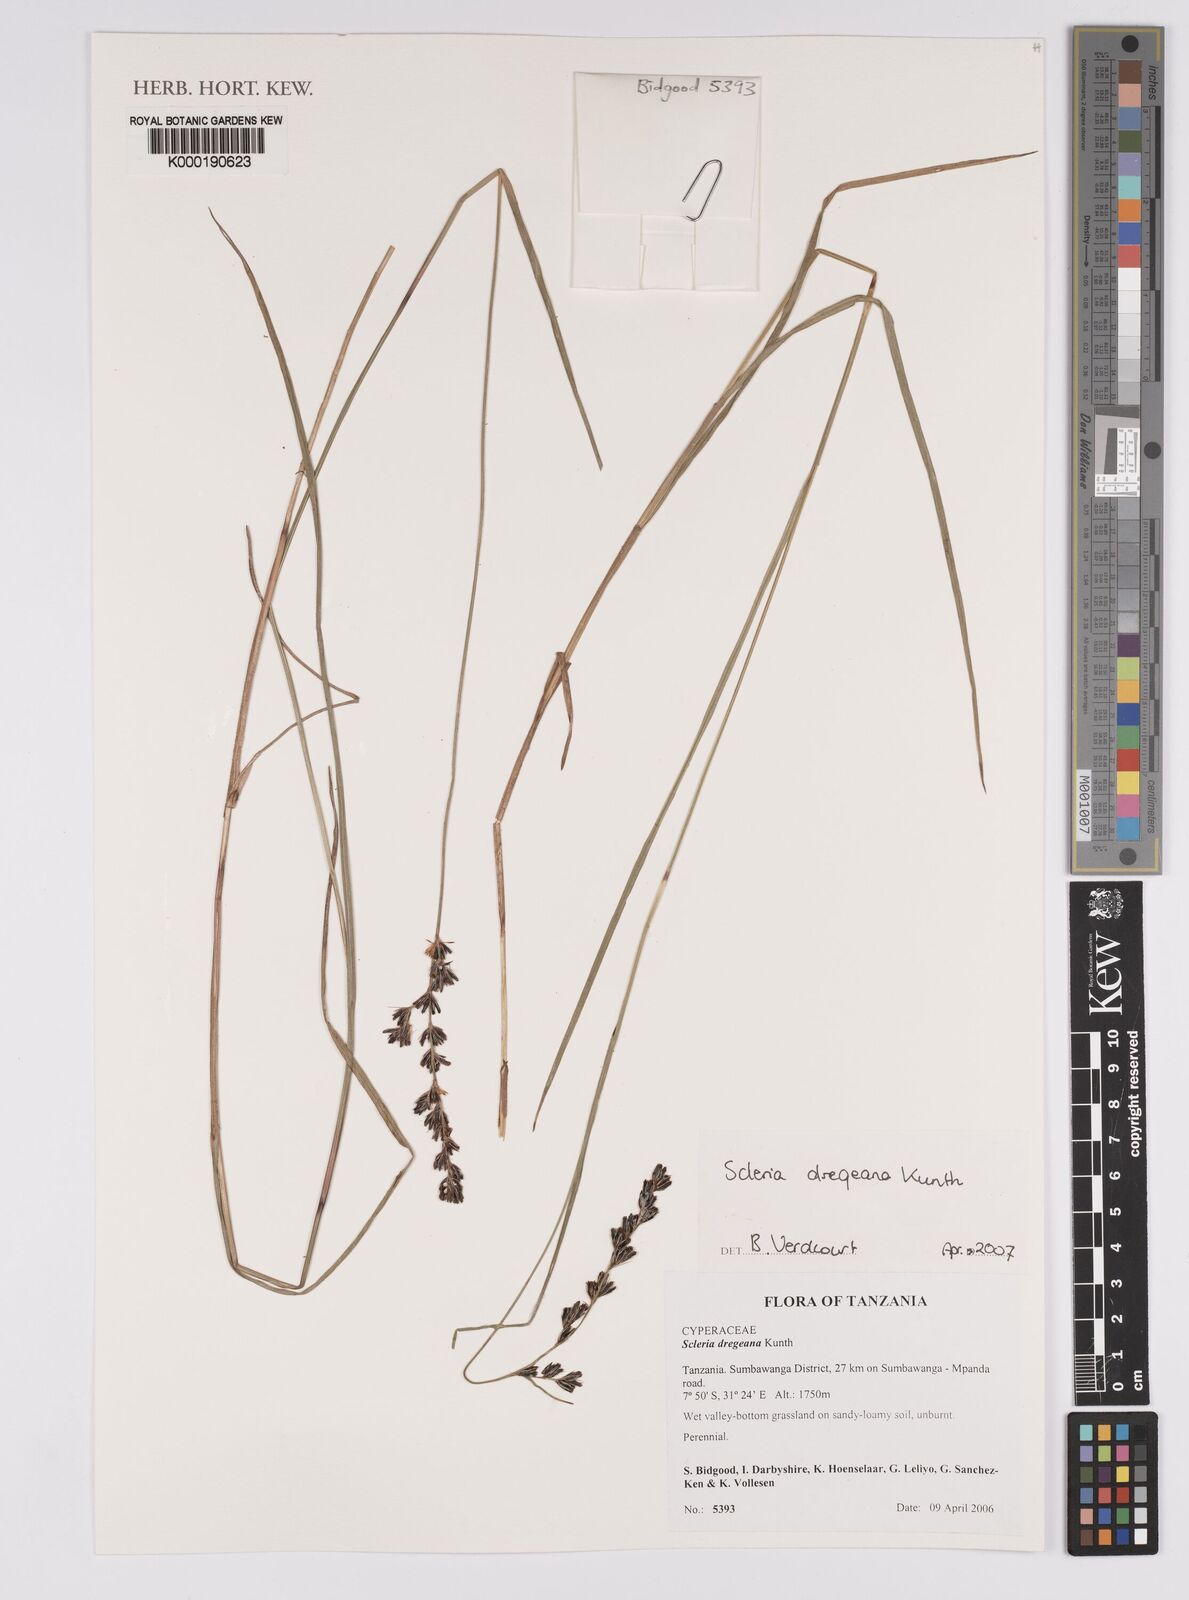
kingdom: Plantae
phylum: Tracheophyta
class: Liliopsida
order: Poales
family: Cyperaceae
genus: Scleria
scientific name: Scleria dregeana
